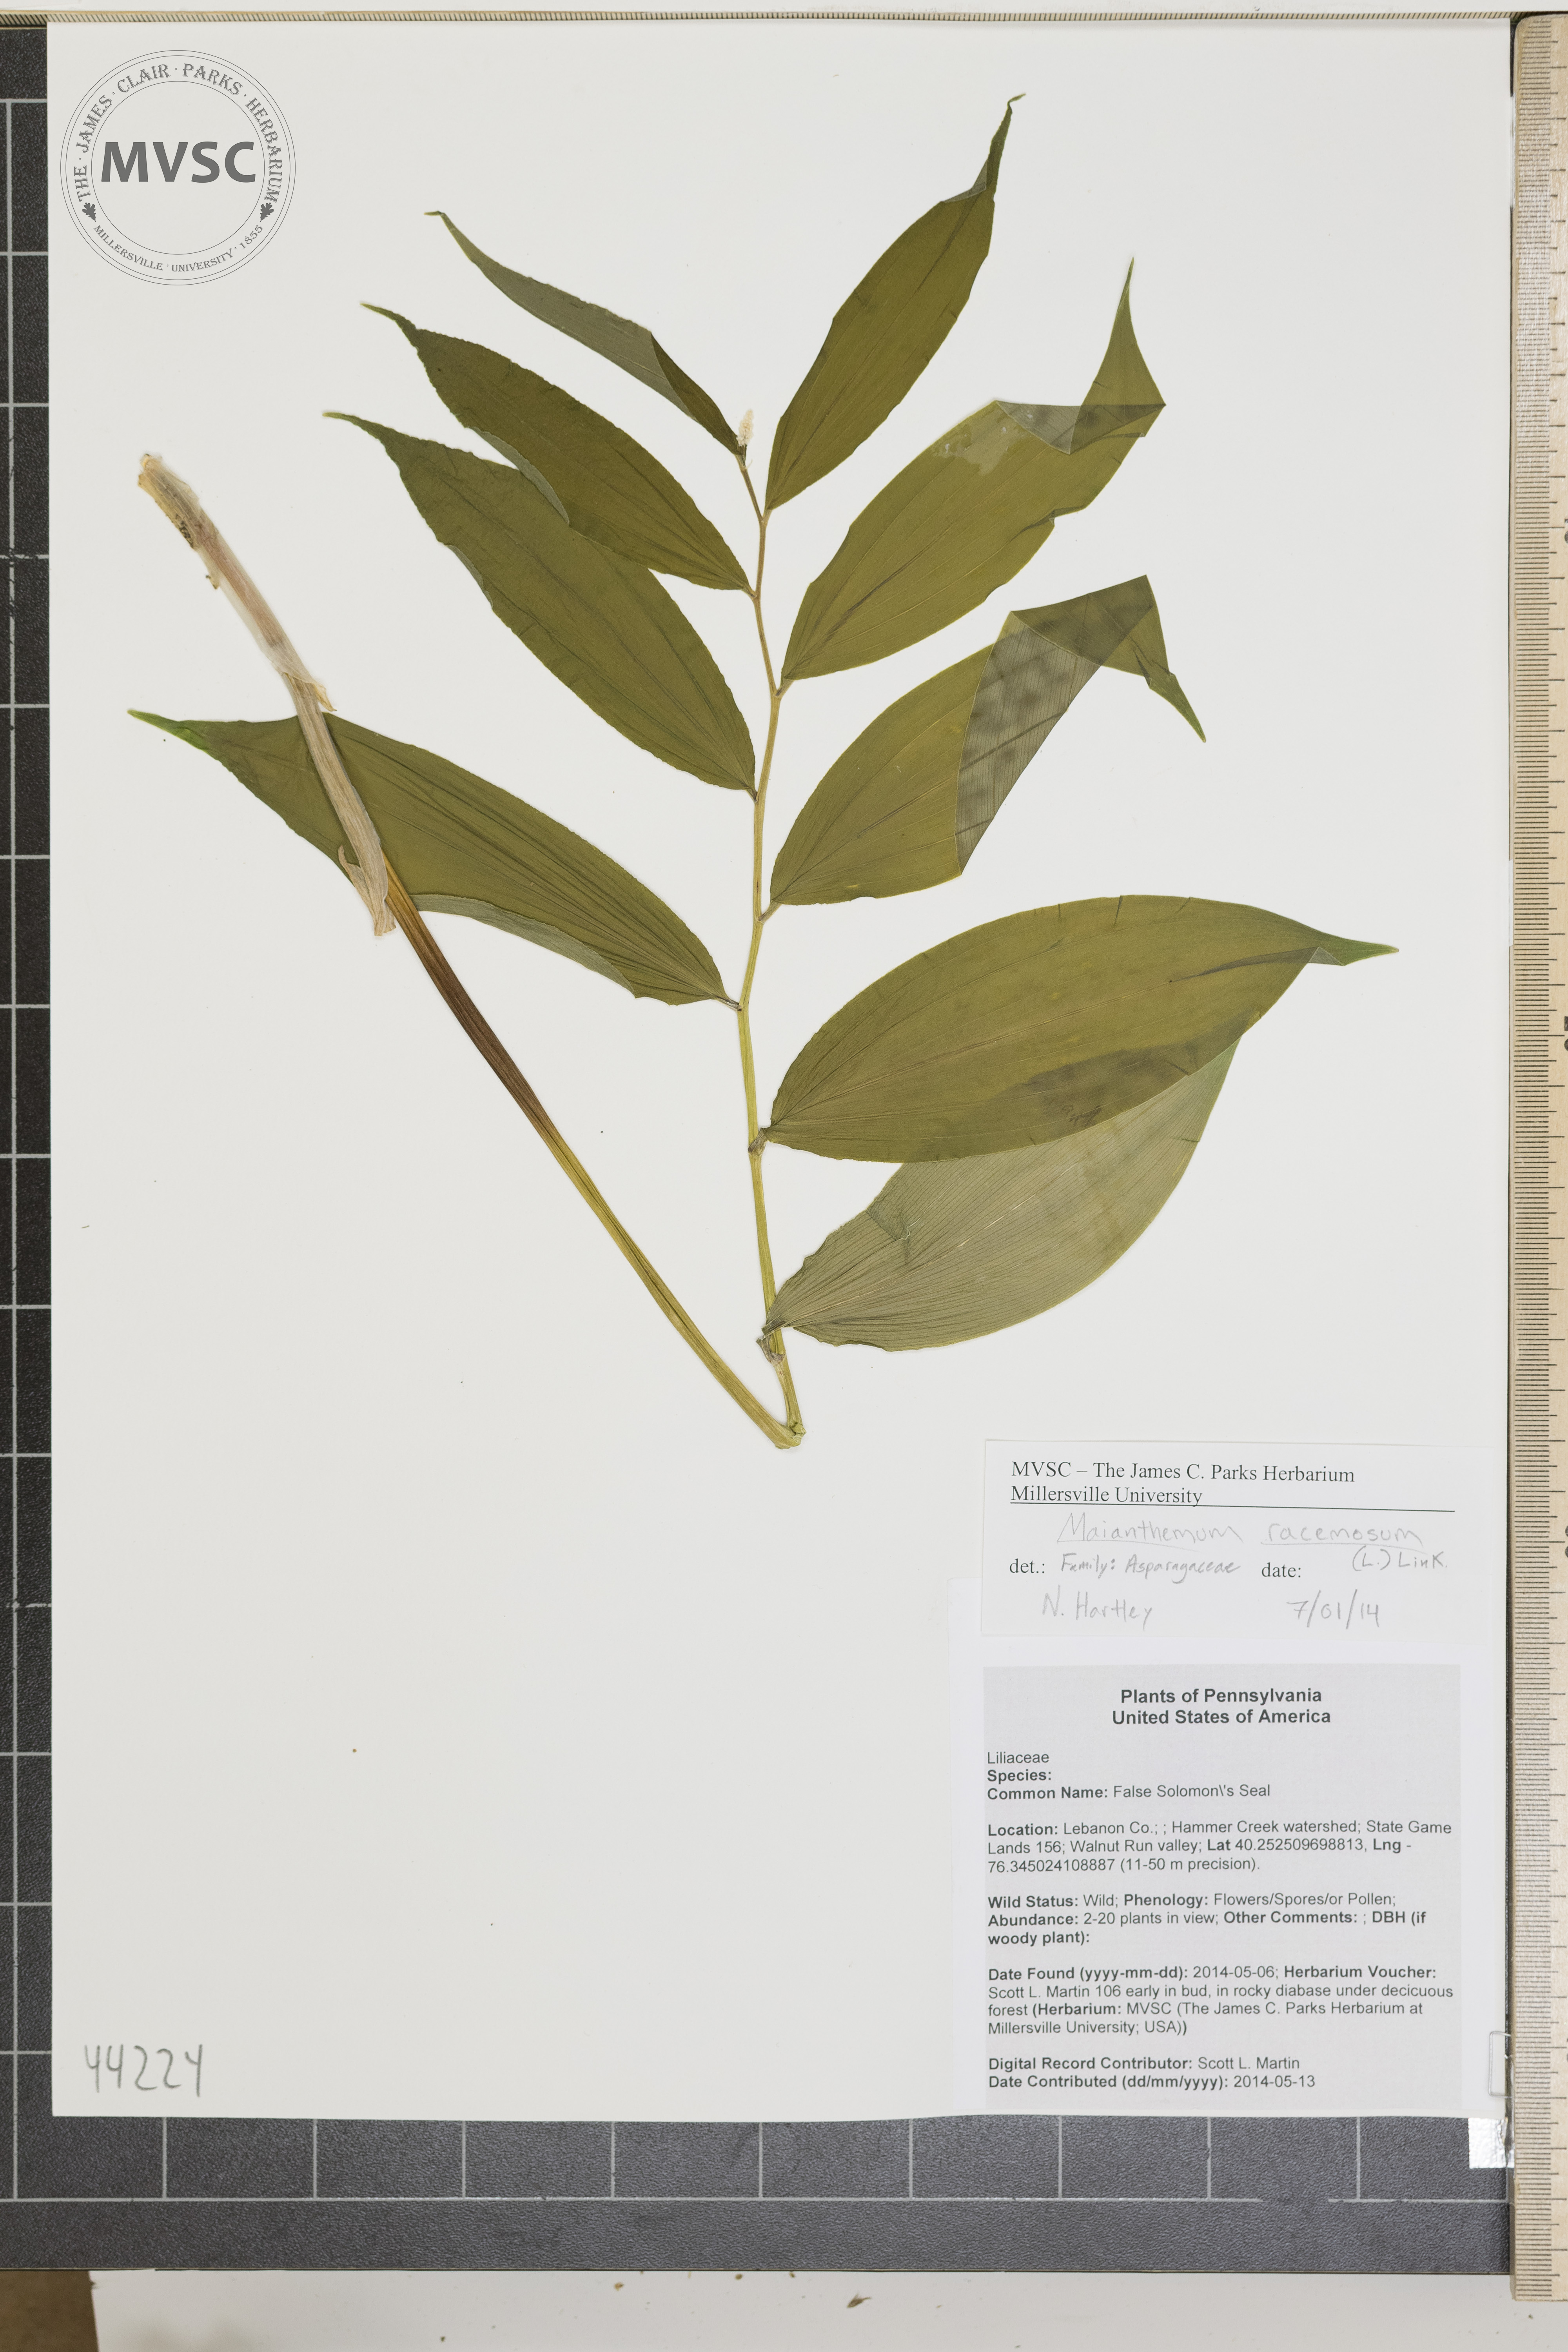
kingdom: Plantae
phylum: Tracheophyta
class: Liliopsida
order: Asparagales
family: Asparagaceae
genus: Maianthemum
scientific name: Maianthemum racemosum
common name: False solomon's seal
